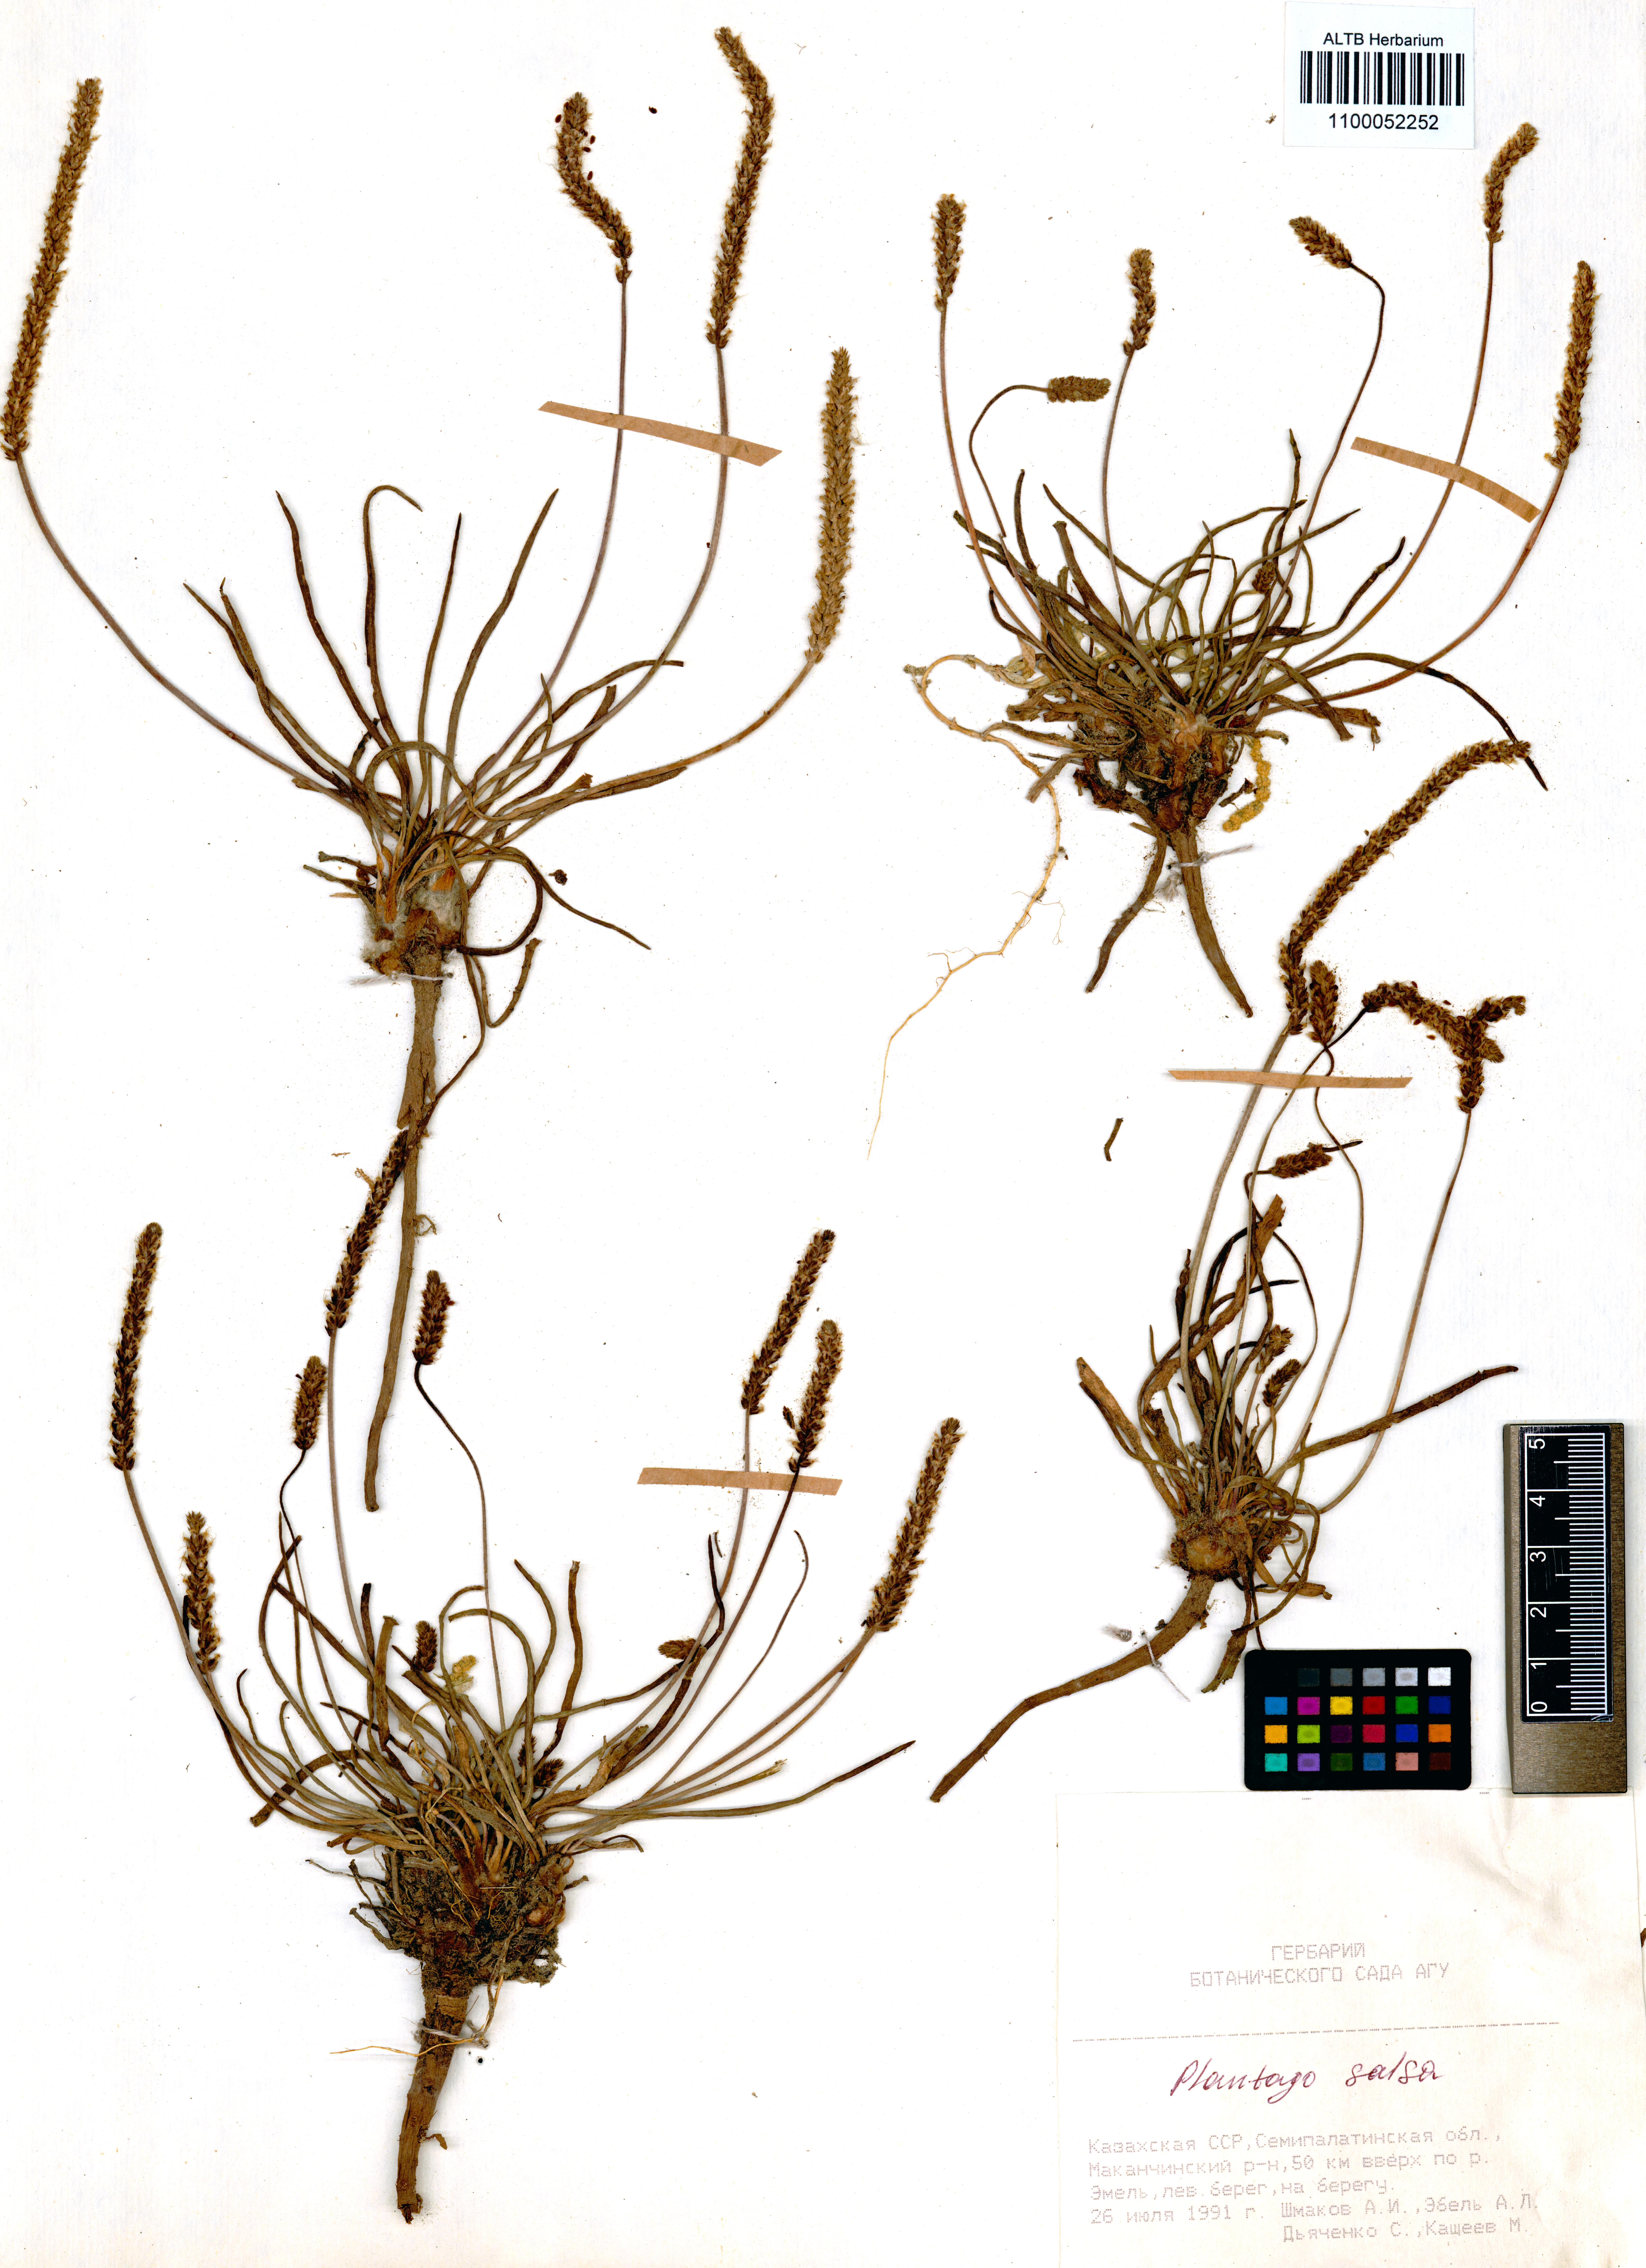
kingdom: Plantae
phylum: Tracheophyta
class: Magnoliopsida
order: Lamiales
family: Plantaginaceae
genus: Plantago
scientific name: Plantago salsa
